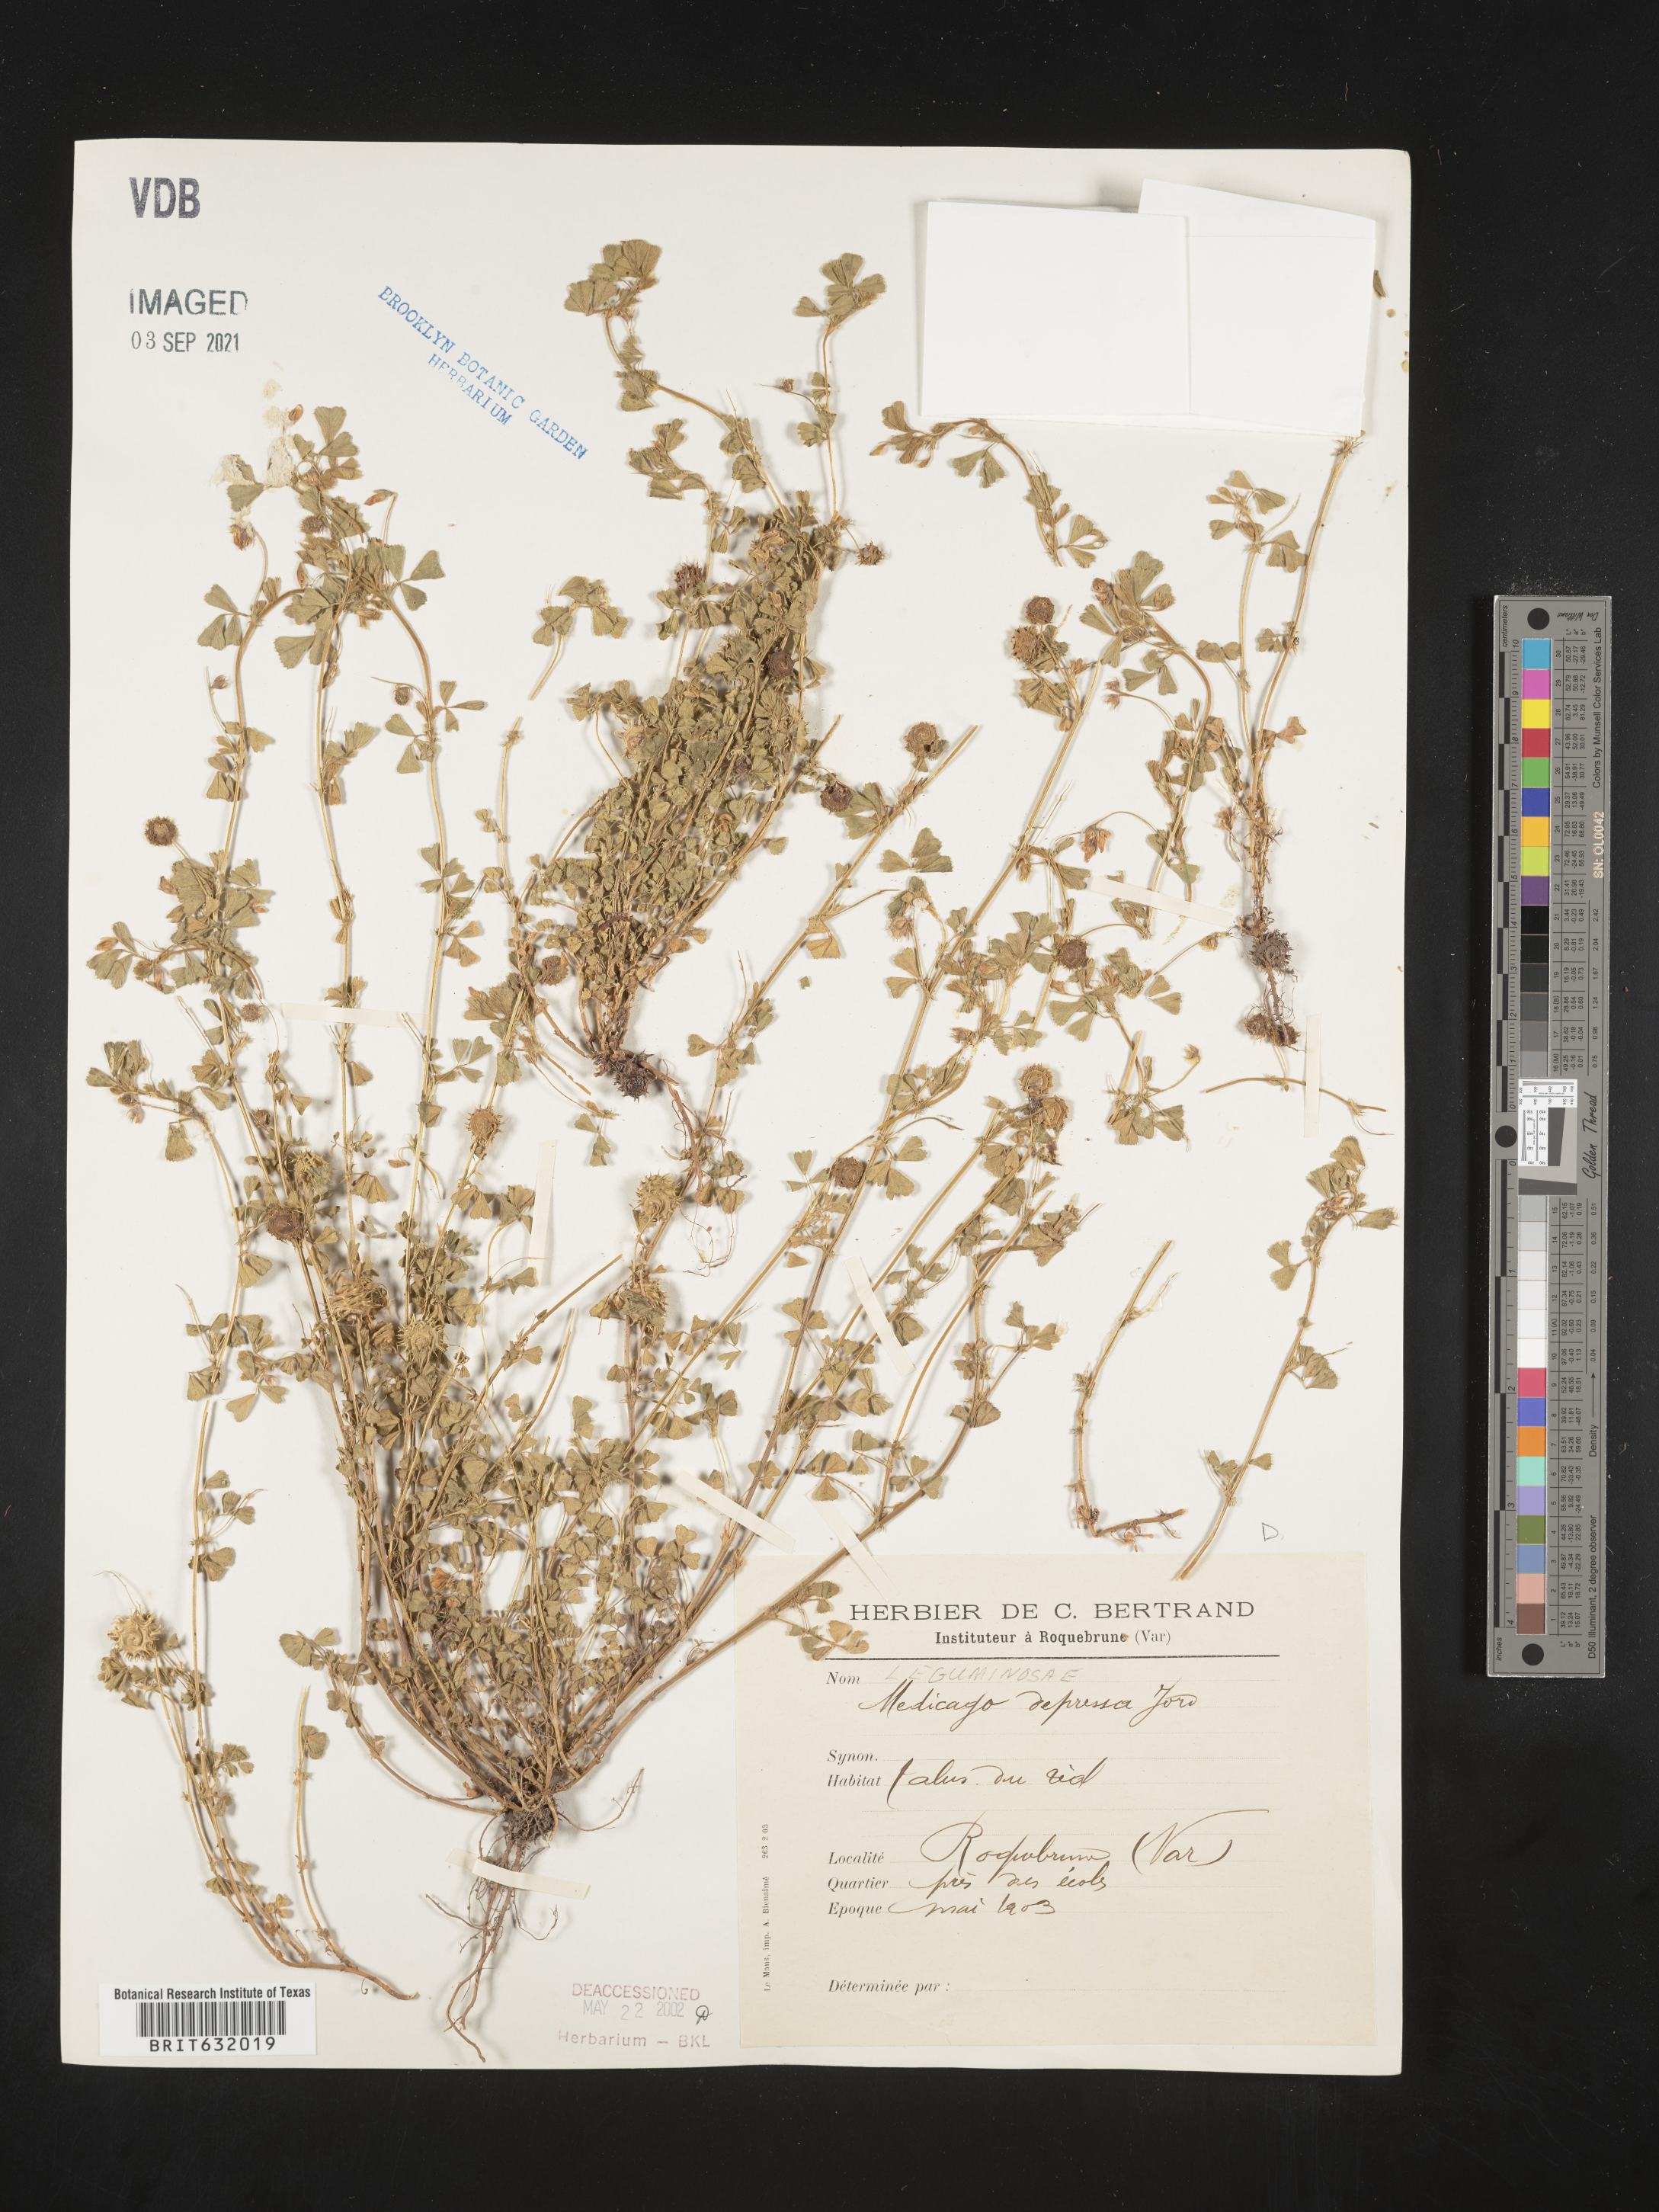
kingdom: Plantae
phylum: Tracheophyta
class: Magnoliopsida
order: Fabales
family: Fabaceae
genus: Medicago
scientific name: Medicago
